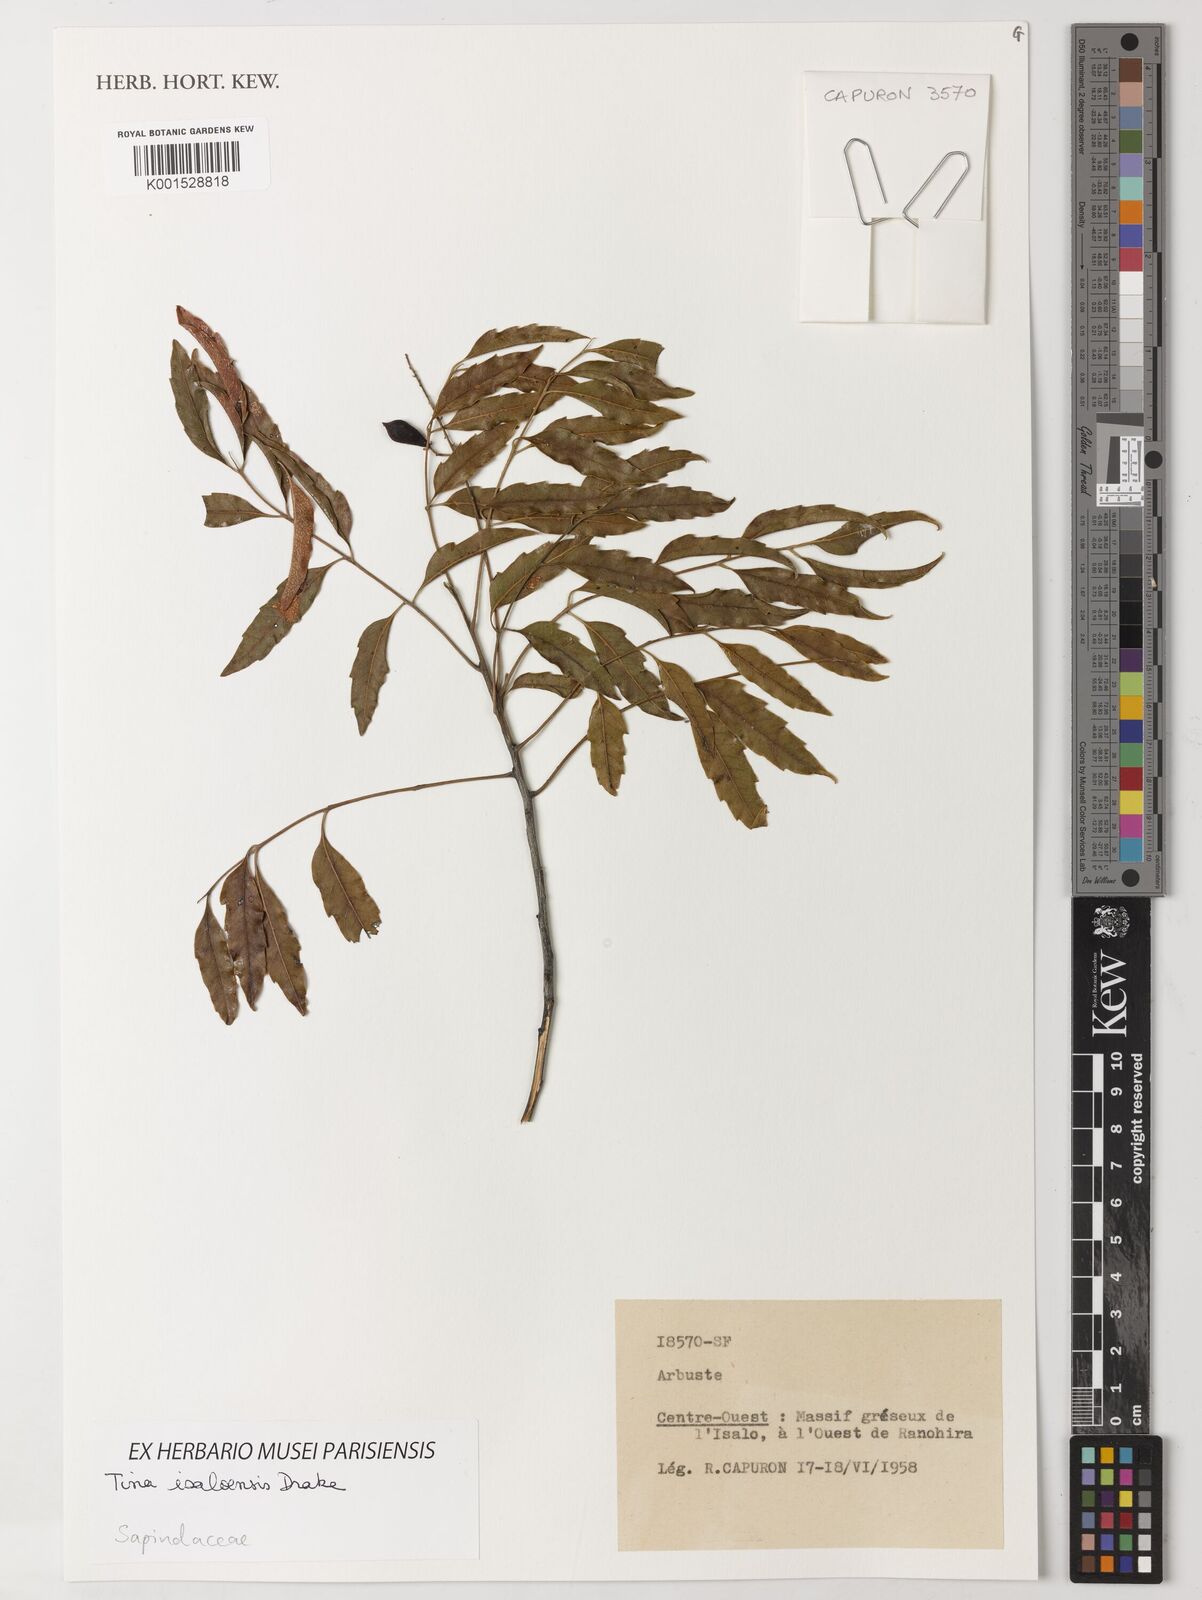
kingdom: Plantae
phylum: Tracheophyta
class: Magnoliopsida
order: Sapindales
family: Sapindaceae
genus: Tina
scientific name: Tina isaloensis
